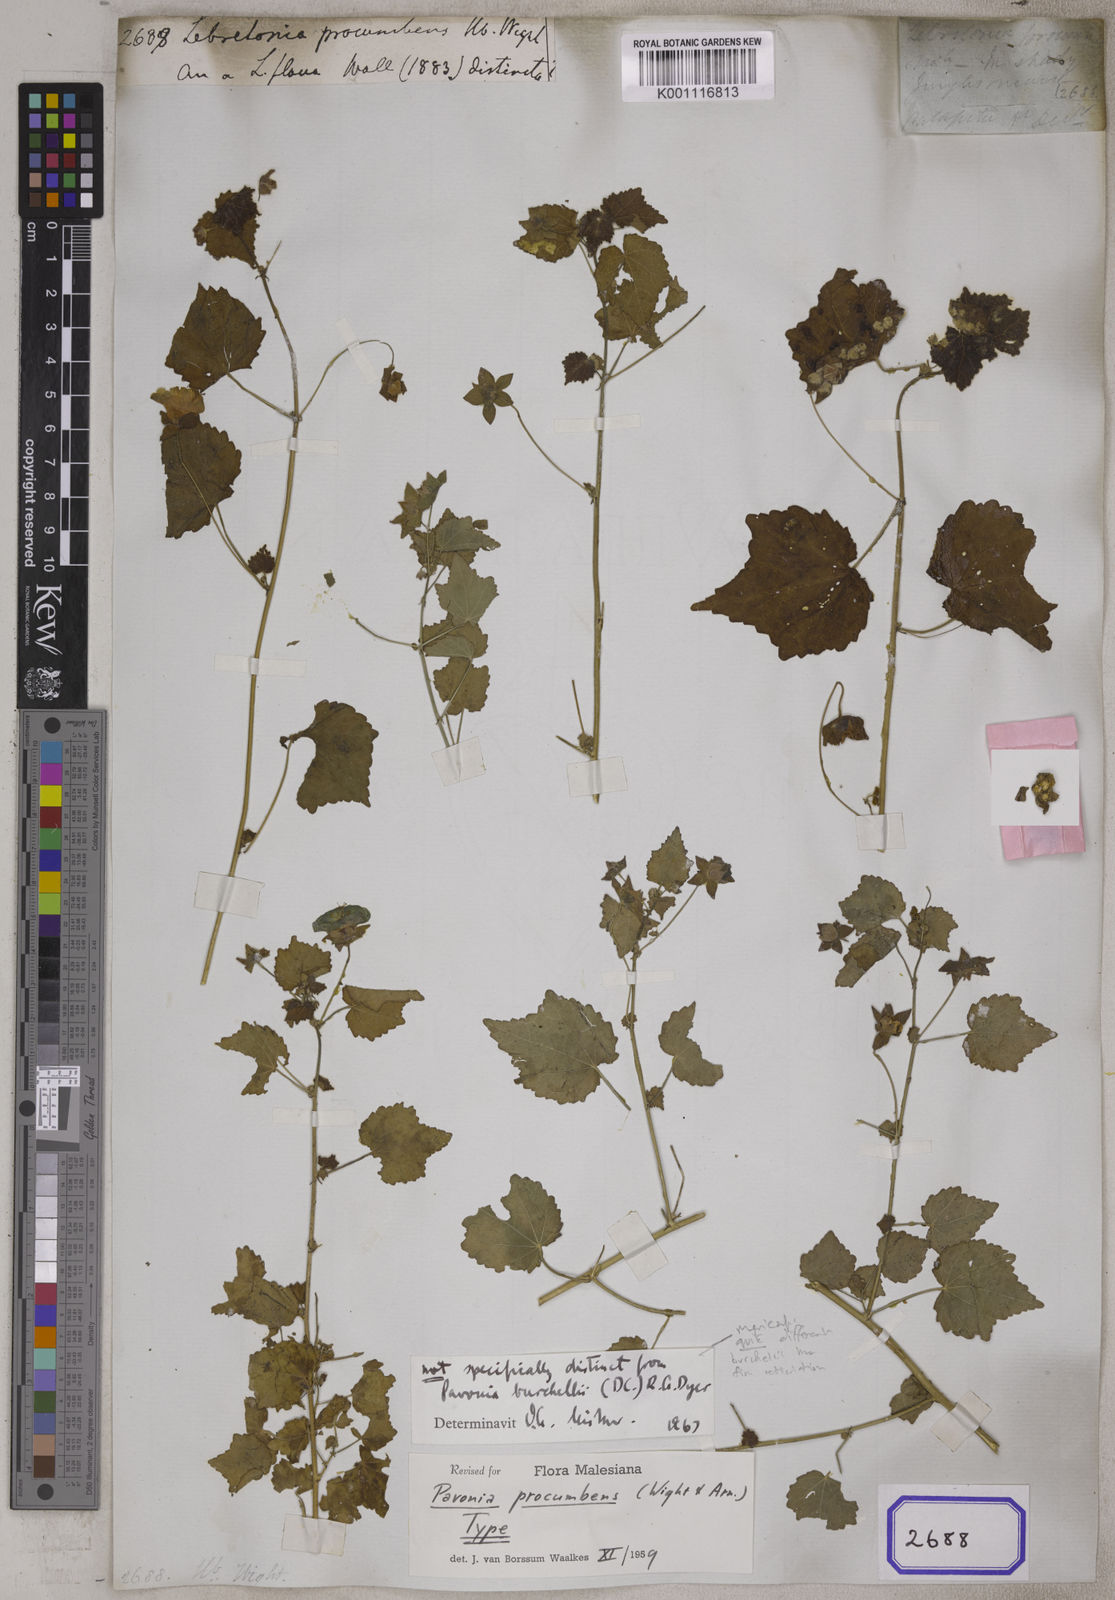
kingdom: Plantae
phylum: Tracheophyta
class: Magnoliopsida
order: Malvales
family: Malvaceae
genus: Pavonia
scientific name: Pavonia procumbens
